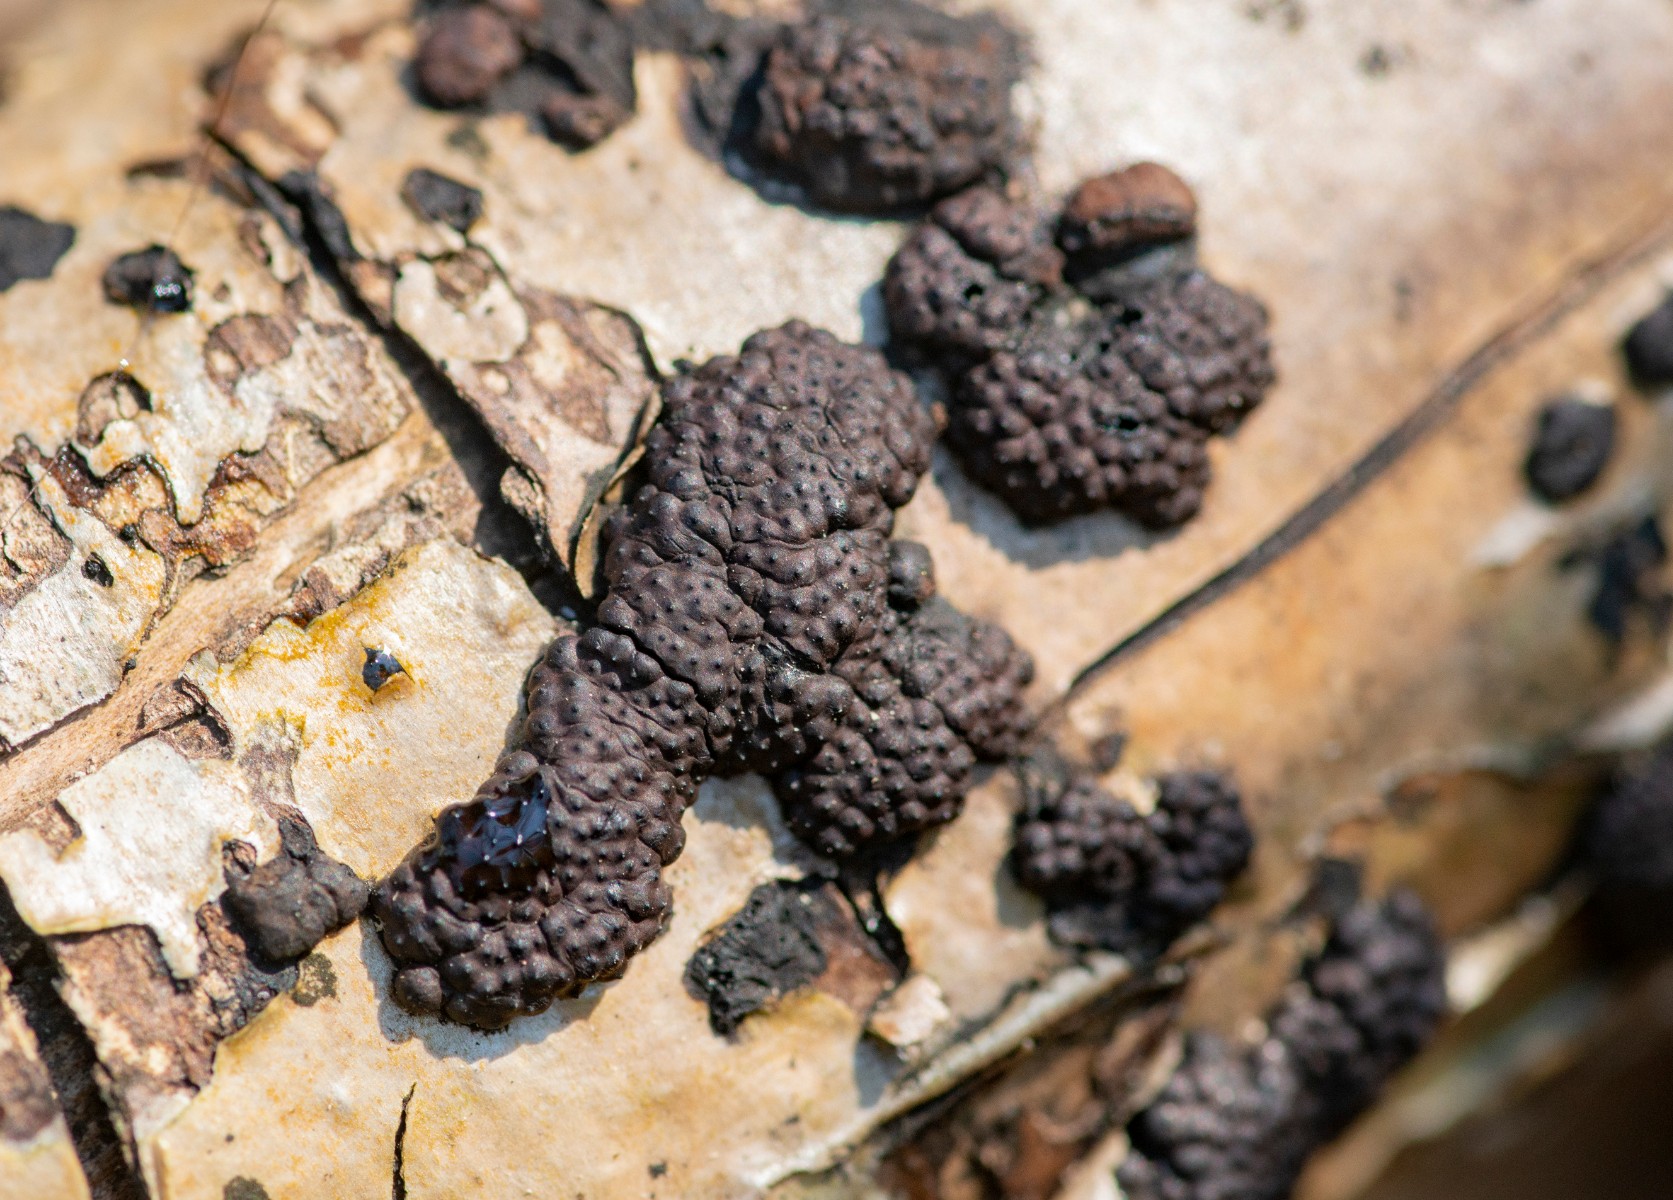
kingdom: Fungi
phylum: Ascomycota
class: Sordariomycetes
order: Xylariales
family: Hypoxylaceae
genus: Jackrogersella
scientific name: Jackrogersella cohaerens
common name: sammenflydende kulbær
